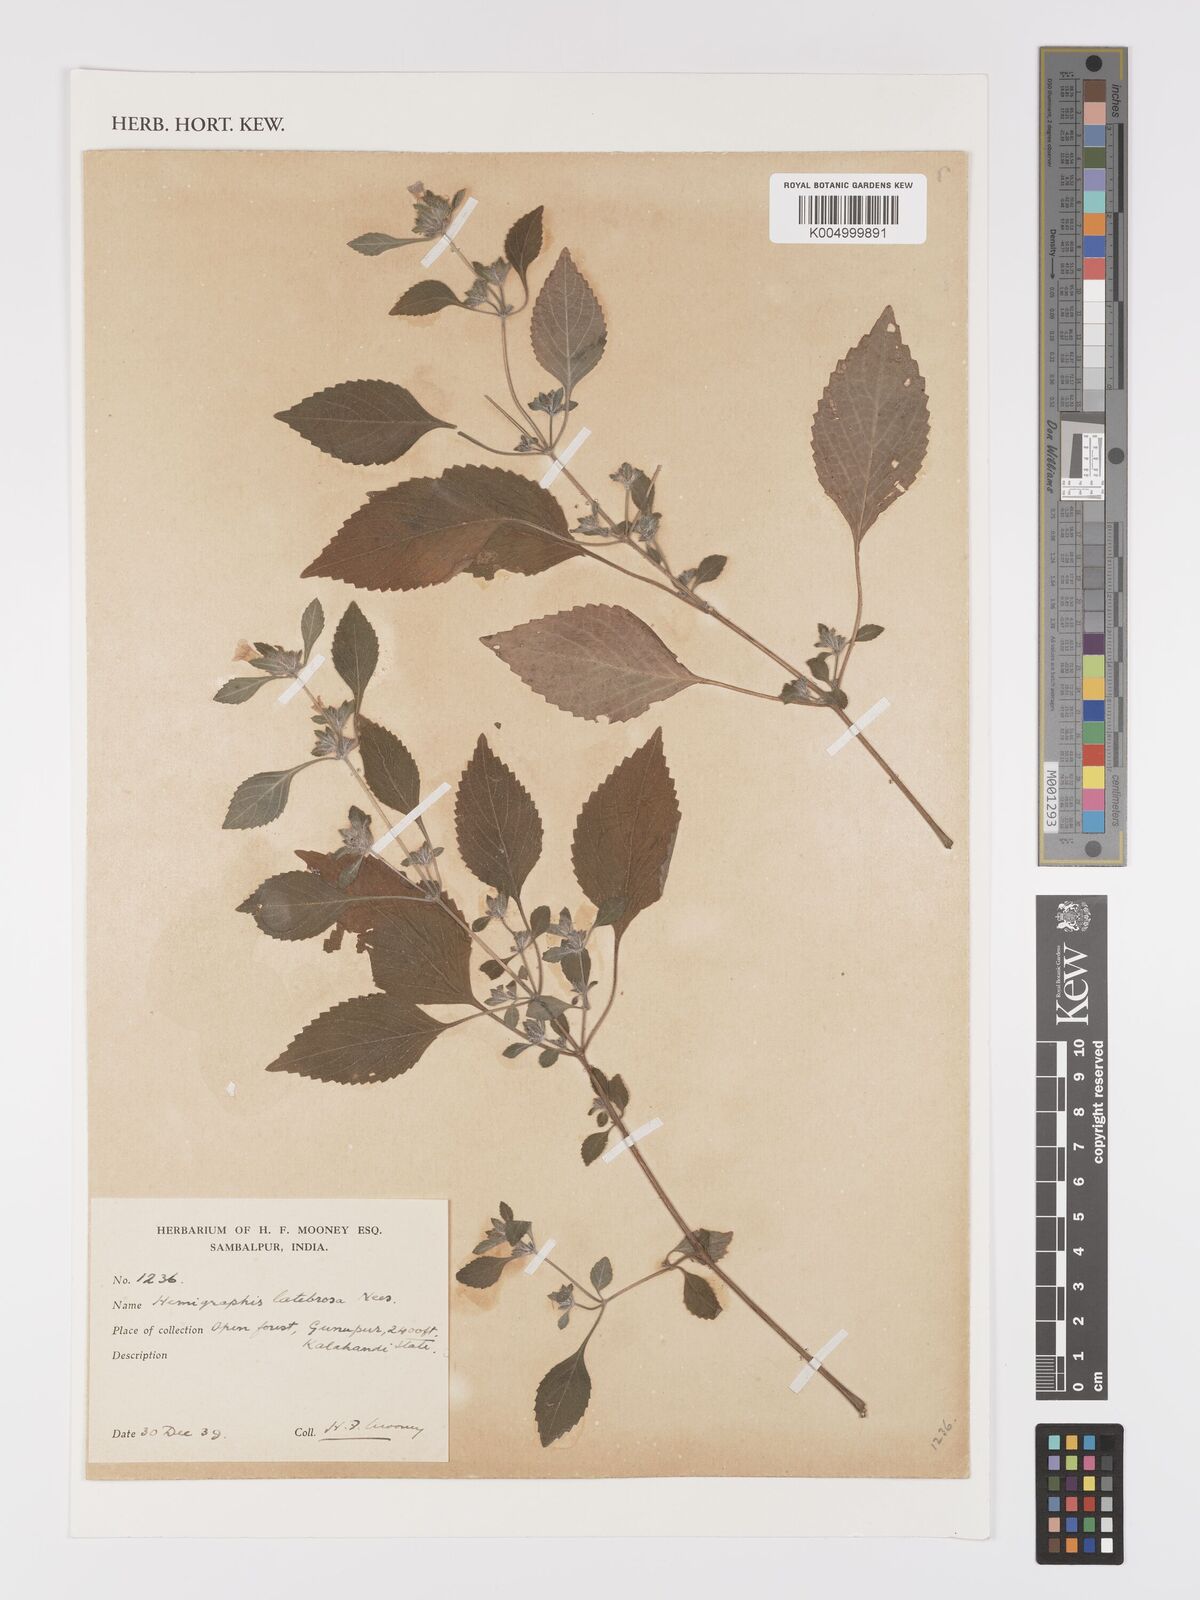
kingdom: Plantae
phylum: Tracheophyta
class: Magnoliopsida
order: Lamiales
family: Acanthaceae
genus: Strobilanthes
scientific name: Strobilanthes latebrosa
